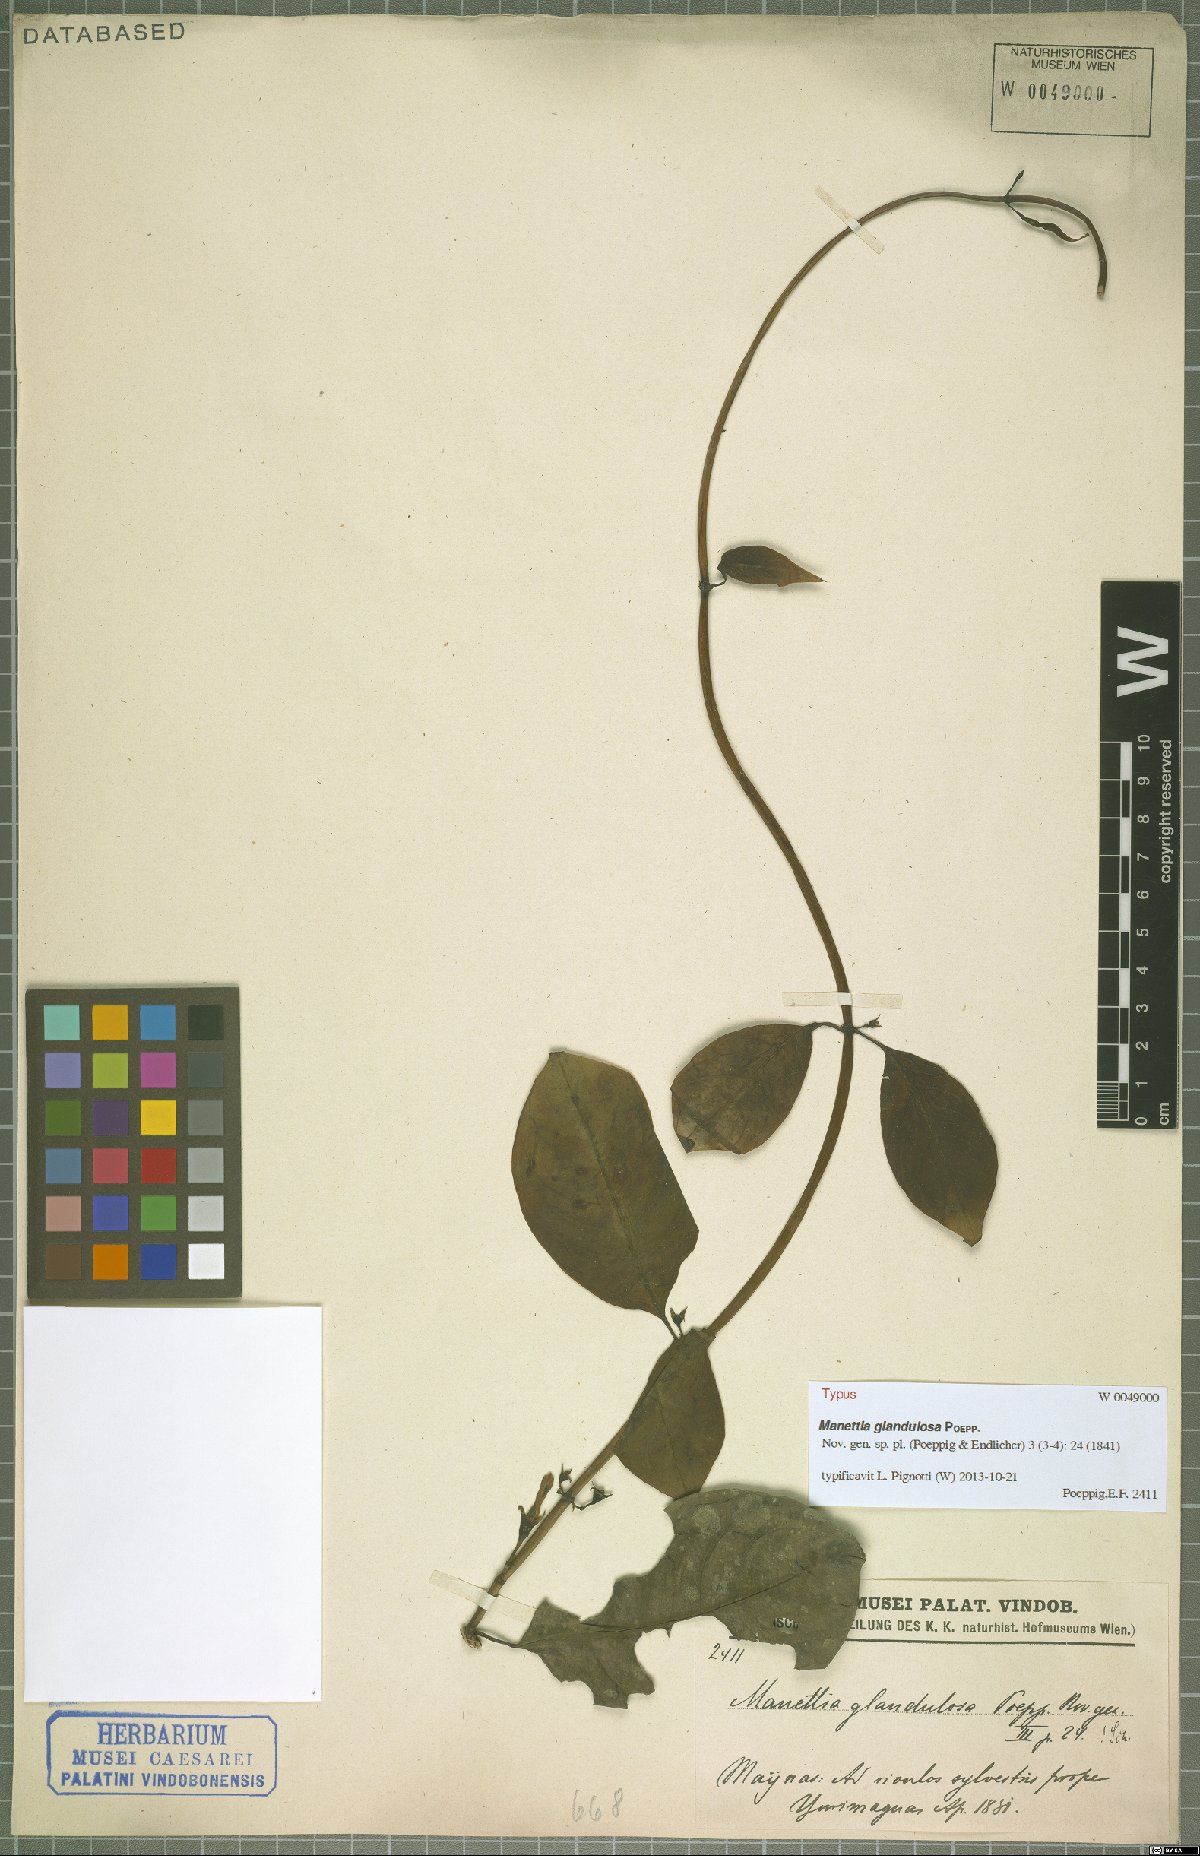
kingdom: Plantae
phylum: Tracheophyta
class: Magnoliopsida
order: Gentianales
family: Rubiaceae
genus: Manettia
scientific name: Manettia glandulosa
